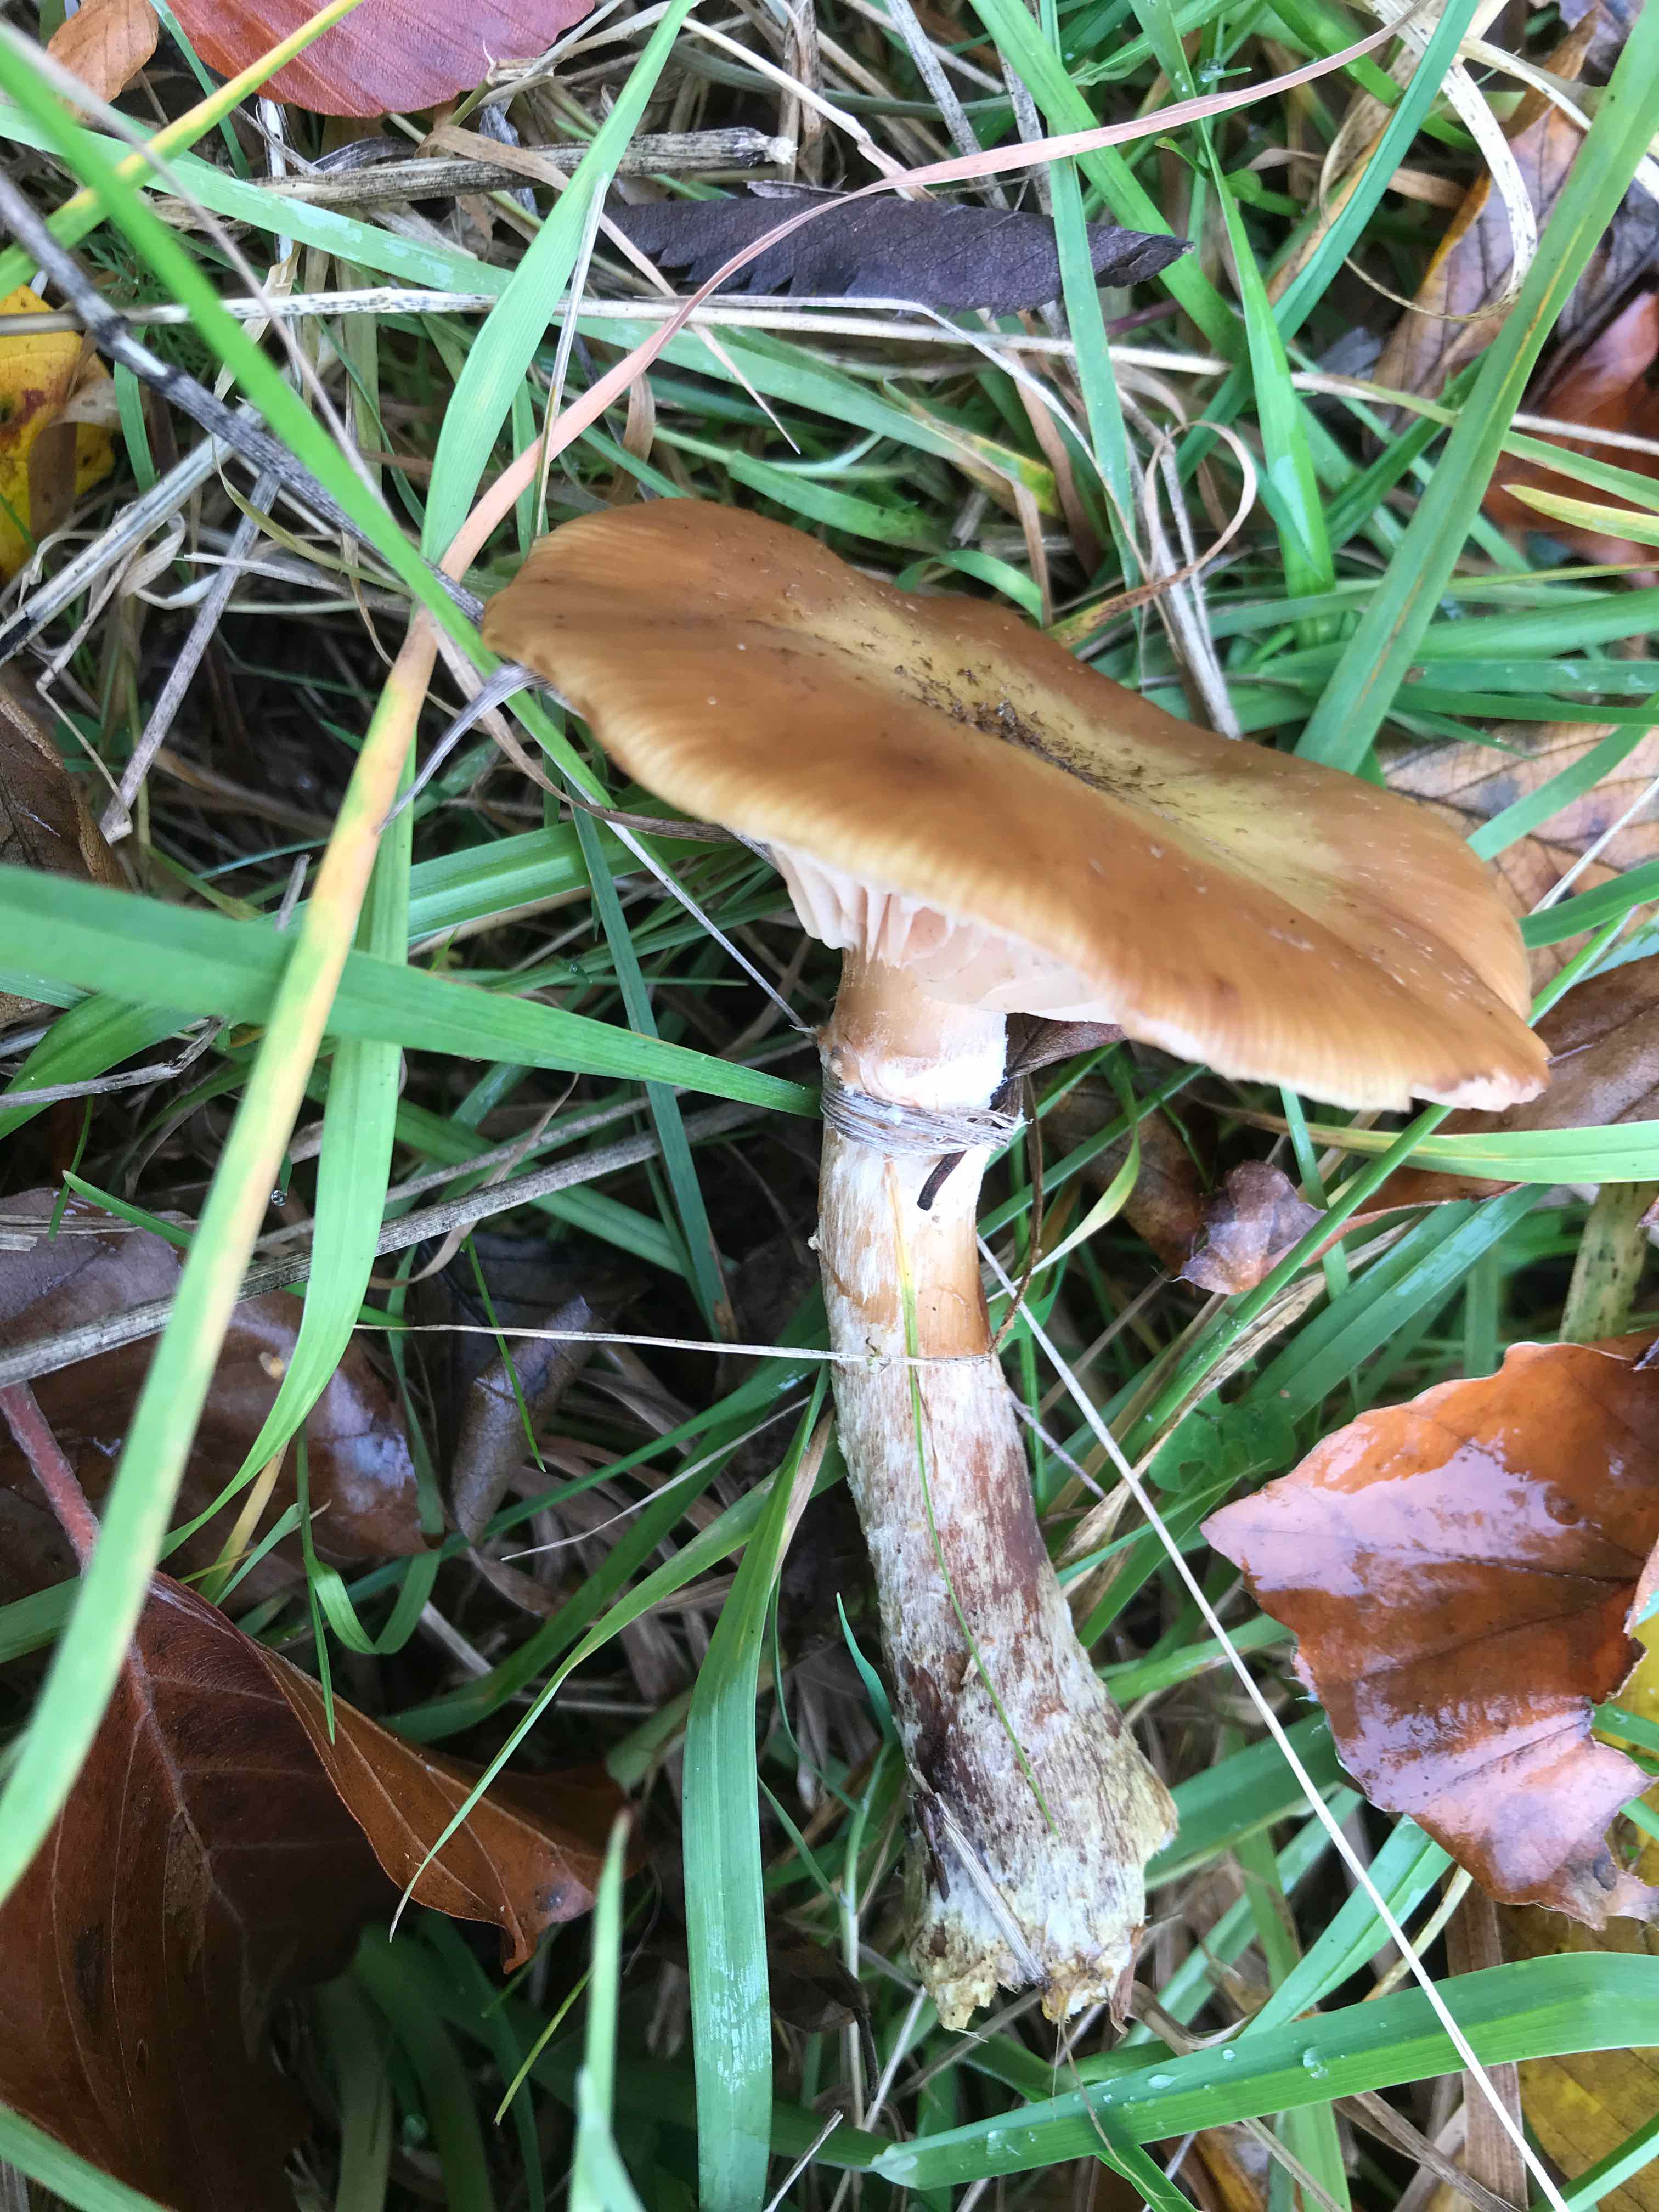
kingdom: Fungi
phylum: Basidiomycota
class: Agaricomycetes
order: Agaricales
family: Physalacriaceae
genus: Armillaria
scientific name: Armillaria lutea
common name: køllestokket honningsvamp
